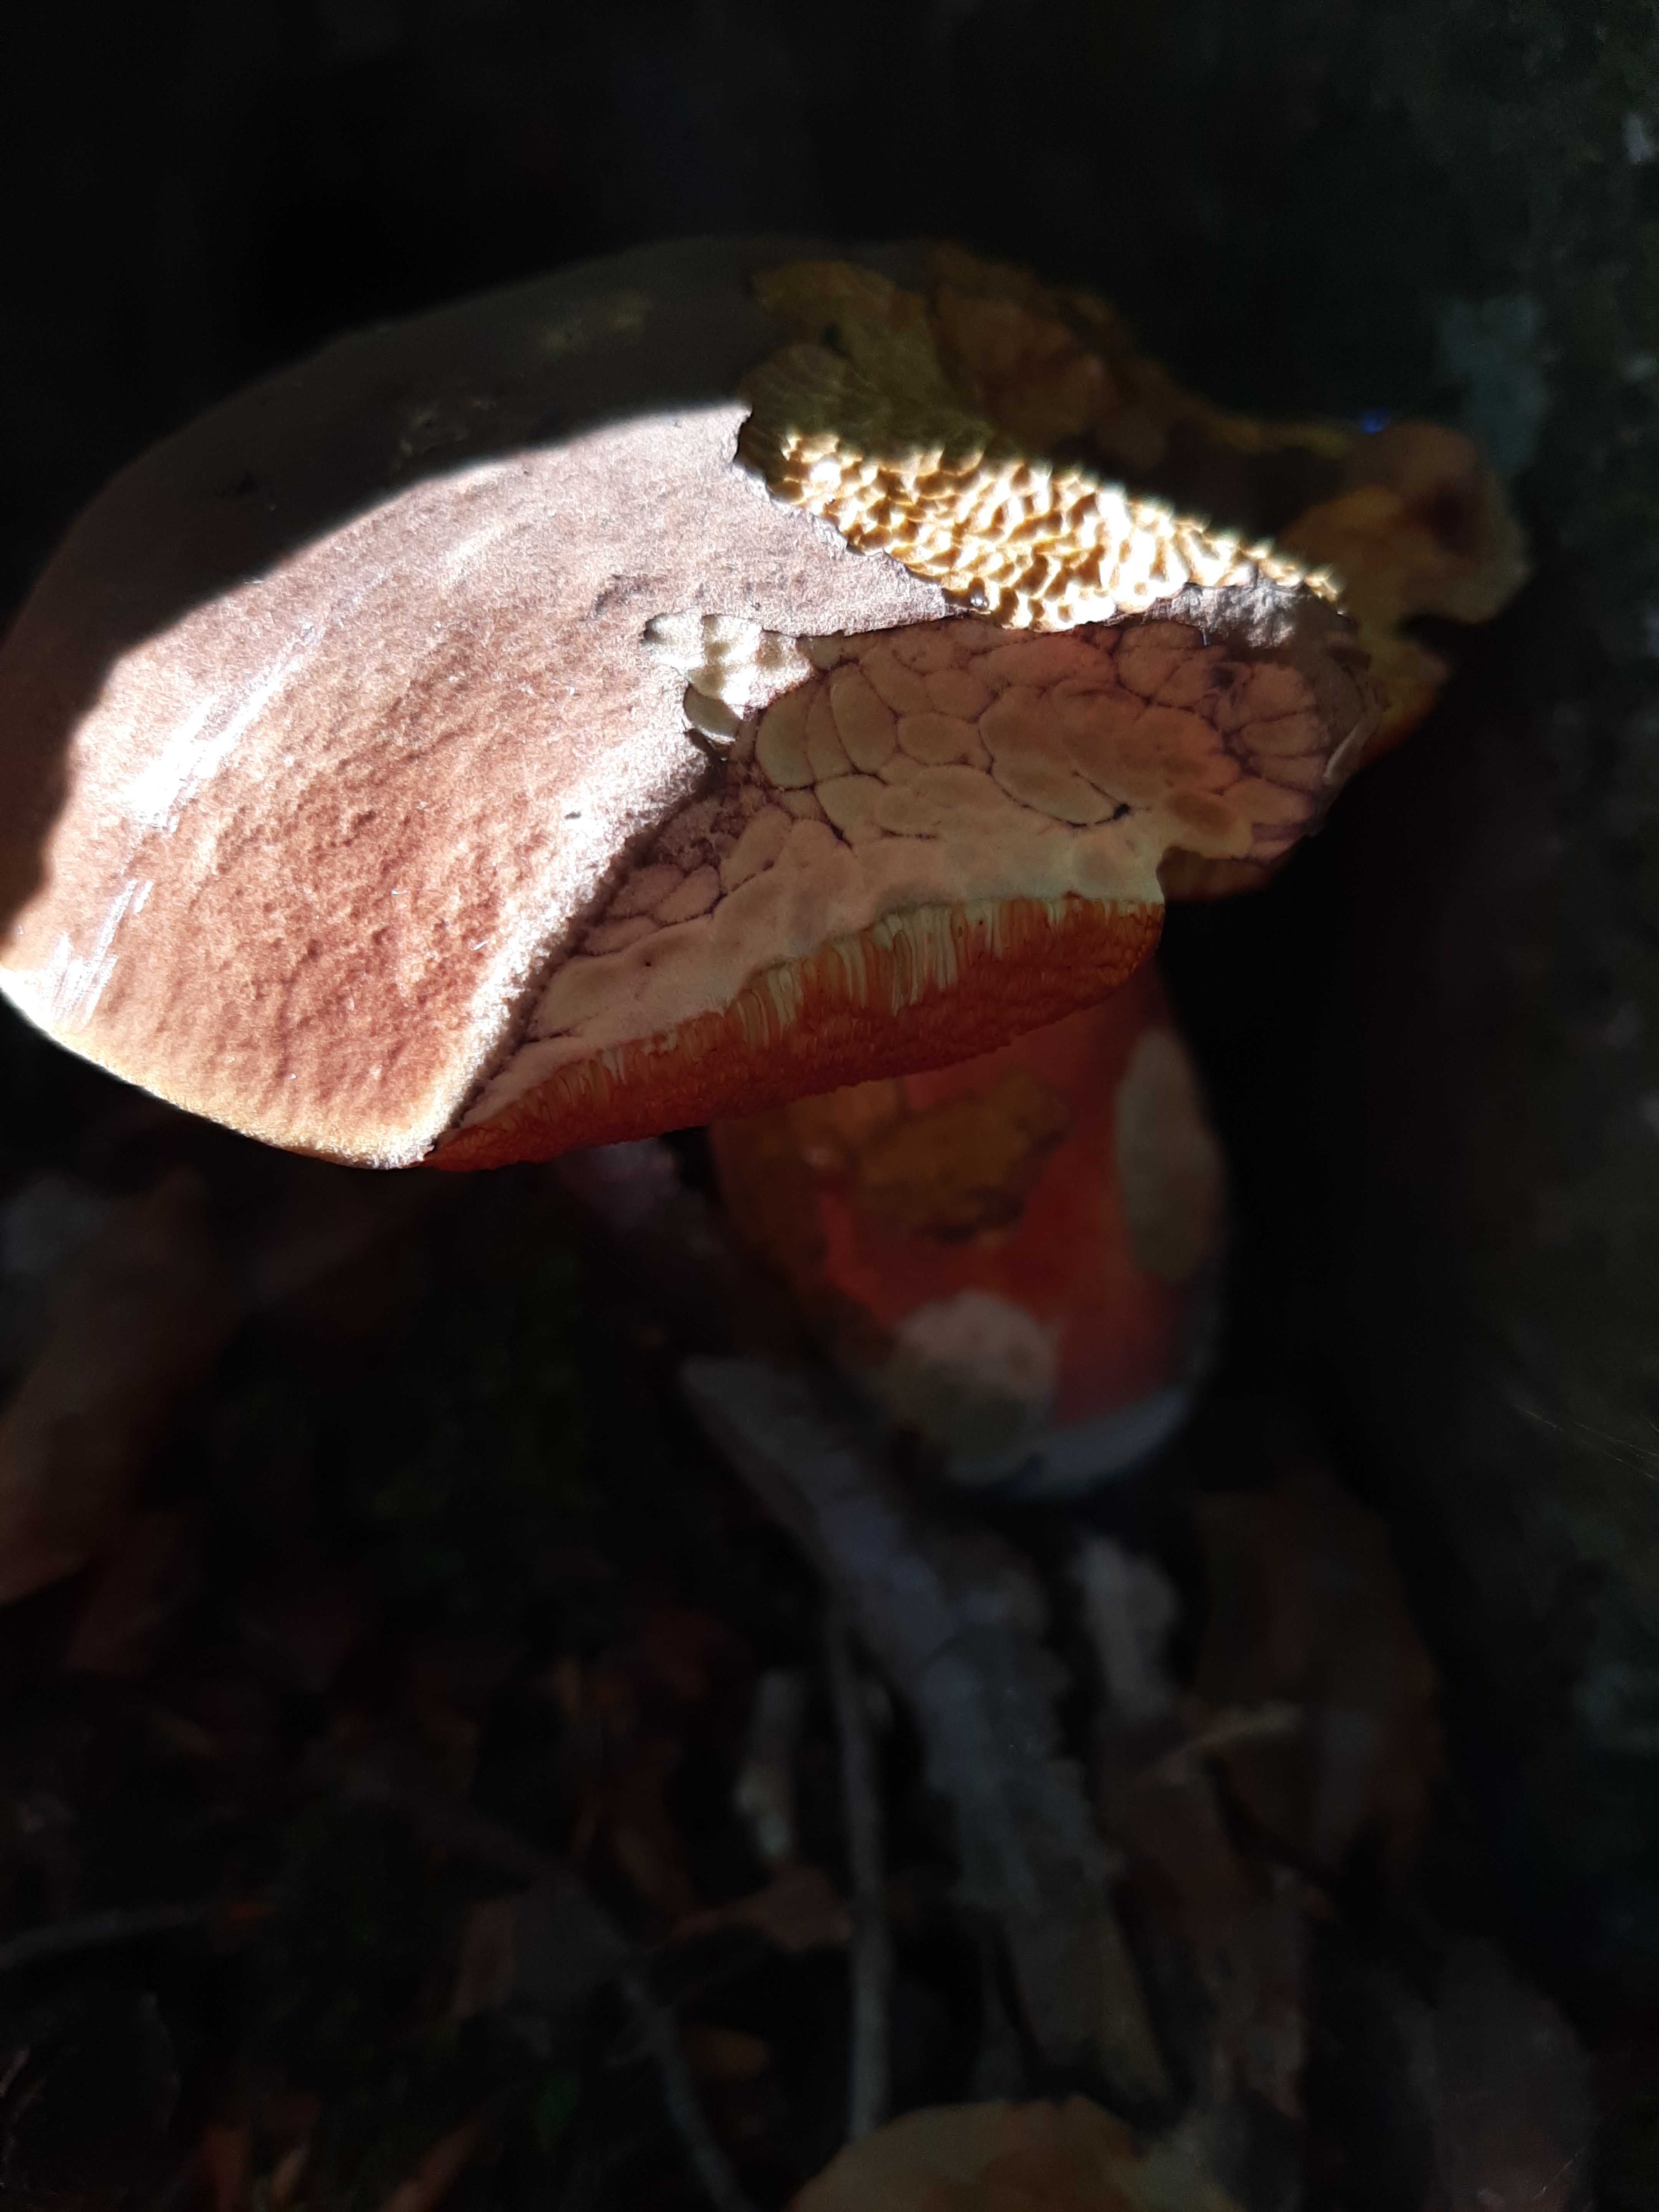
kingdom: Fungi
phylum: Basidiomycota
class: Agaricomycetes
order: Boletales
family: Boletaceae
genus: Neoboletus
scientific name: Neoboletus erythropus
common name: punktstokket indigorørhat
